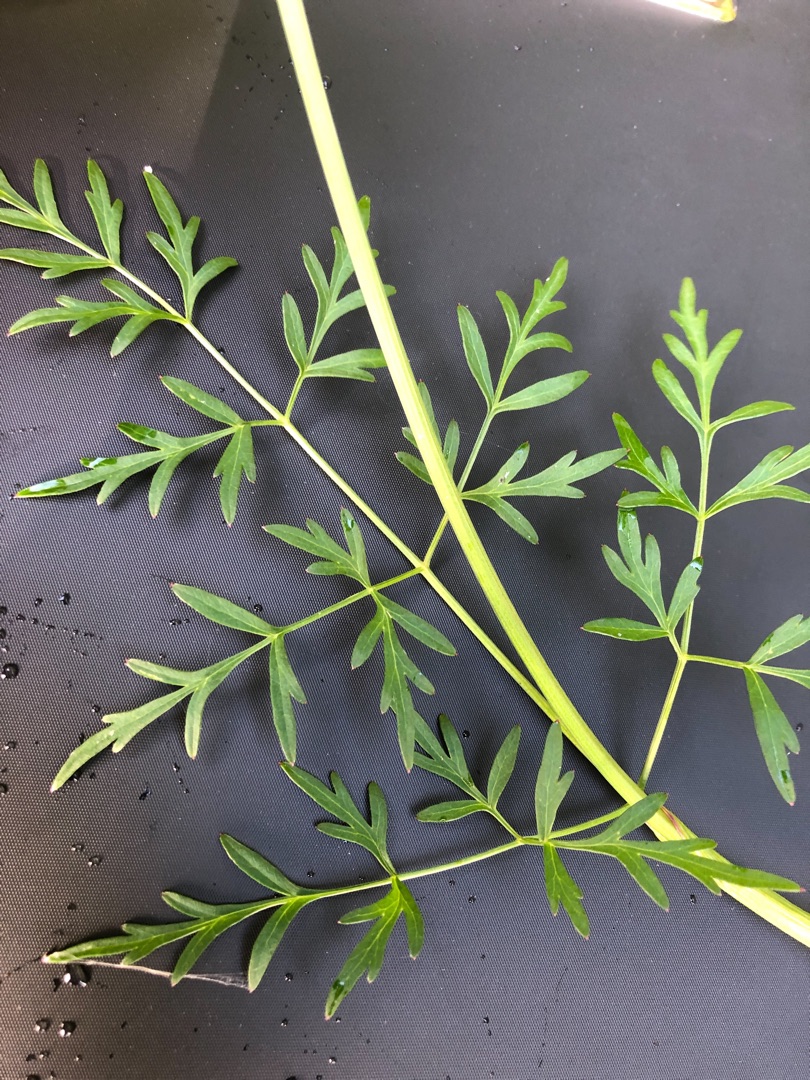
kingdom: Plantae
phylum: Tracheophyta
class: Magnoliopsida
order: Apiales
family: Apiaceae
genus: Thysselinum
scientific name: Thysselinum palustre
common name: Kær-svovlrod
